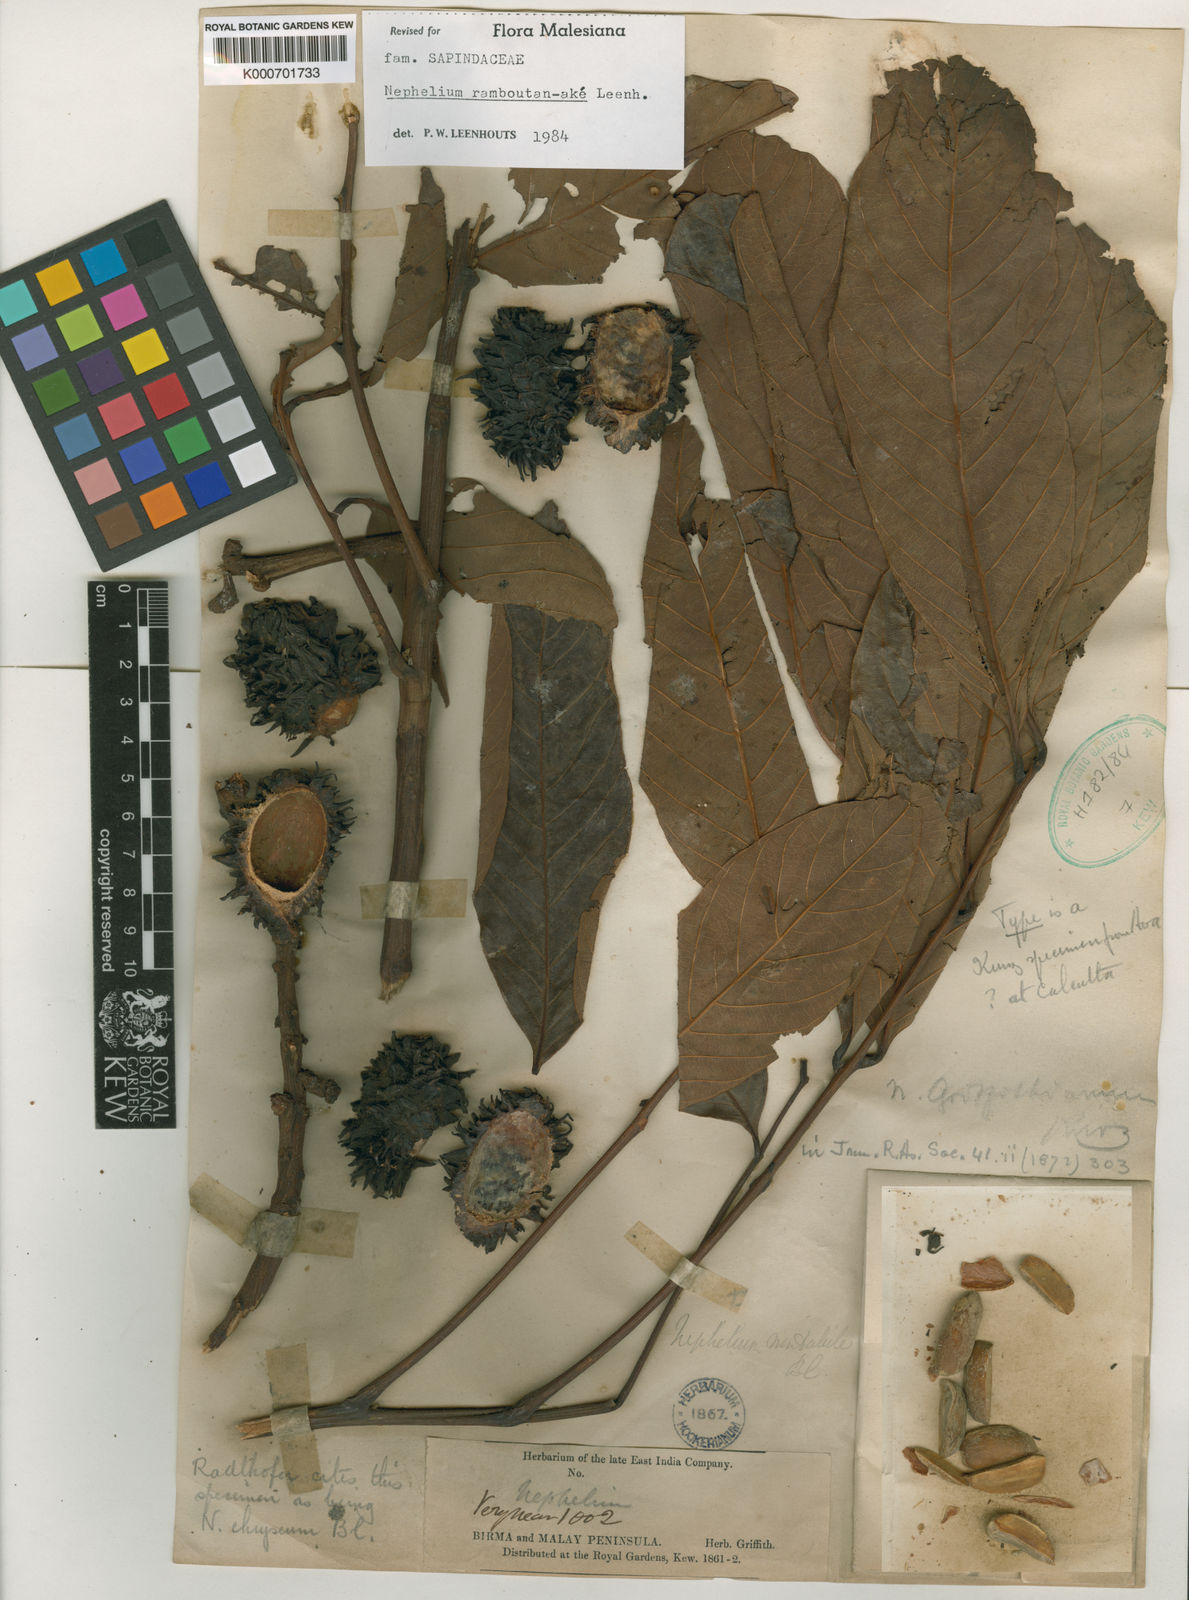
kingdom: Plantae
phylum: Tracheophyta
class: Magnoliopsida
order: Sapindales
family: Sapindaceae
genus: Nephelium
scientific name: Nephelium ramboutan-ake
